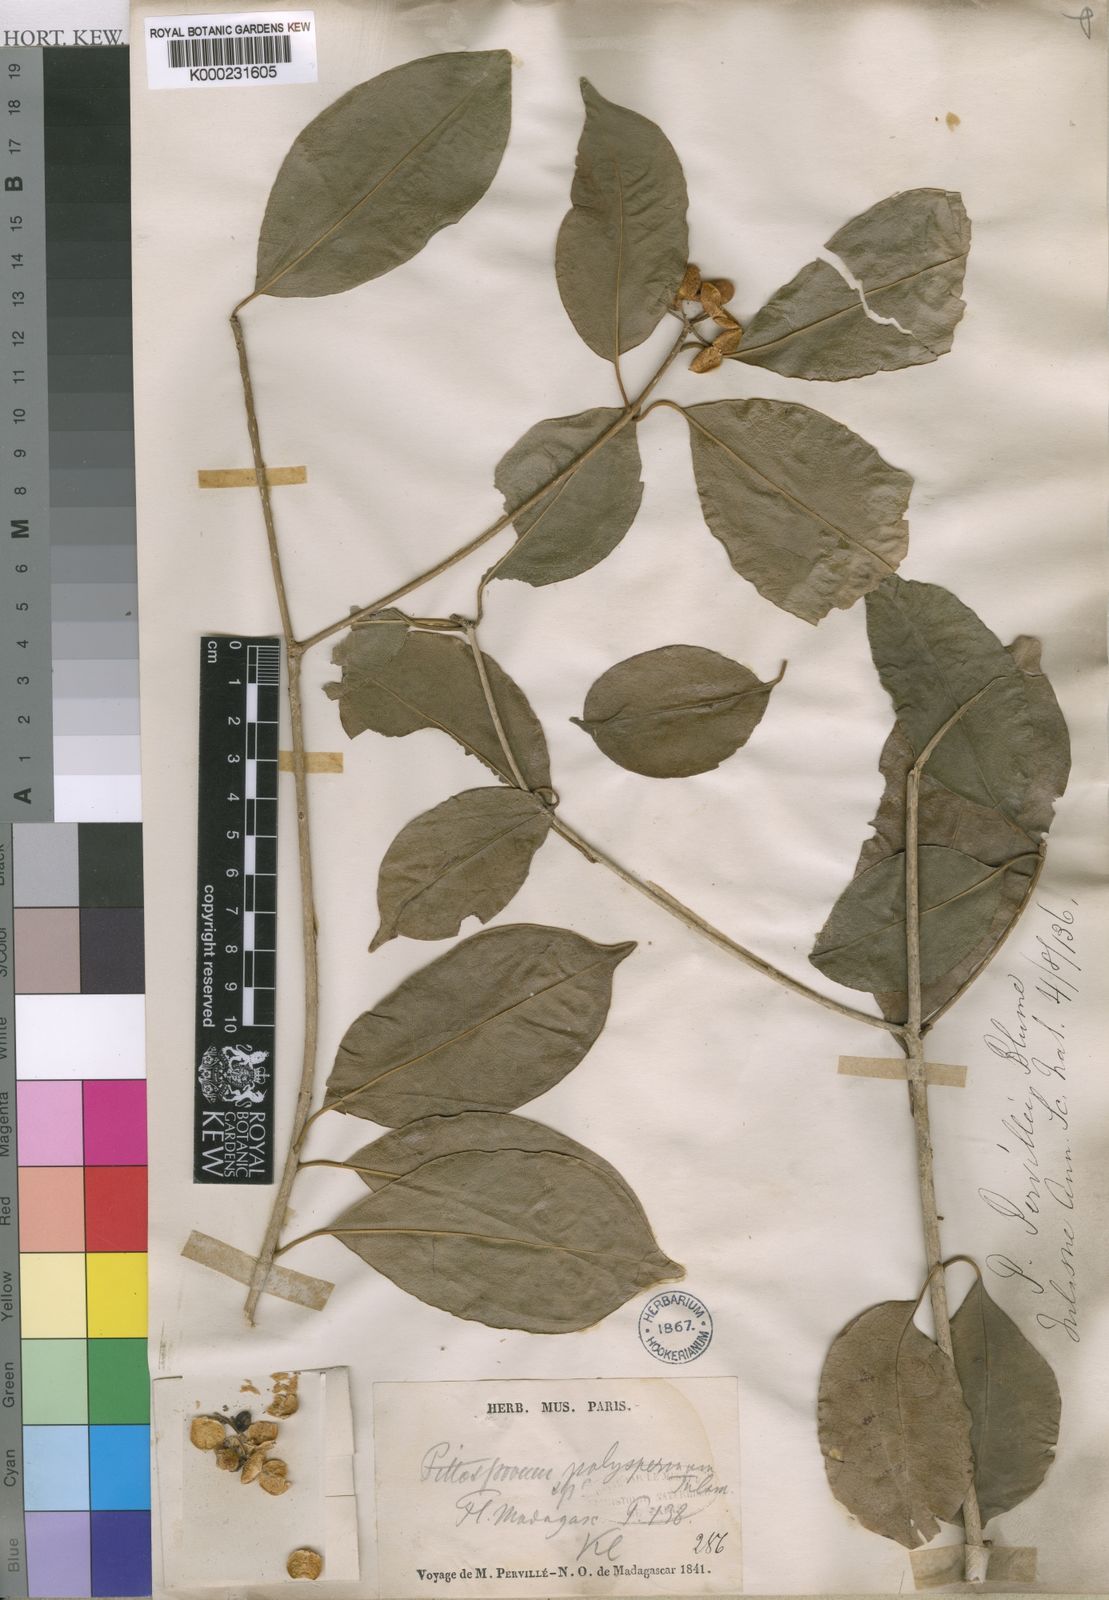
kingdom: Plantae
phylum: Tracheophyta
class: Magnoliopsida
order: Apiales
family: Pittosporaceae
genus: Pittosporum
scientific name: Pittosporum senacia
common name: Cheesewood
